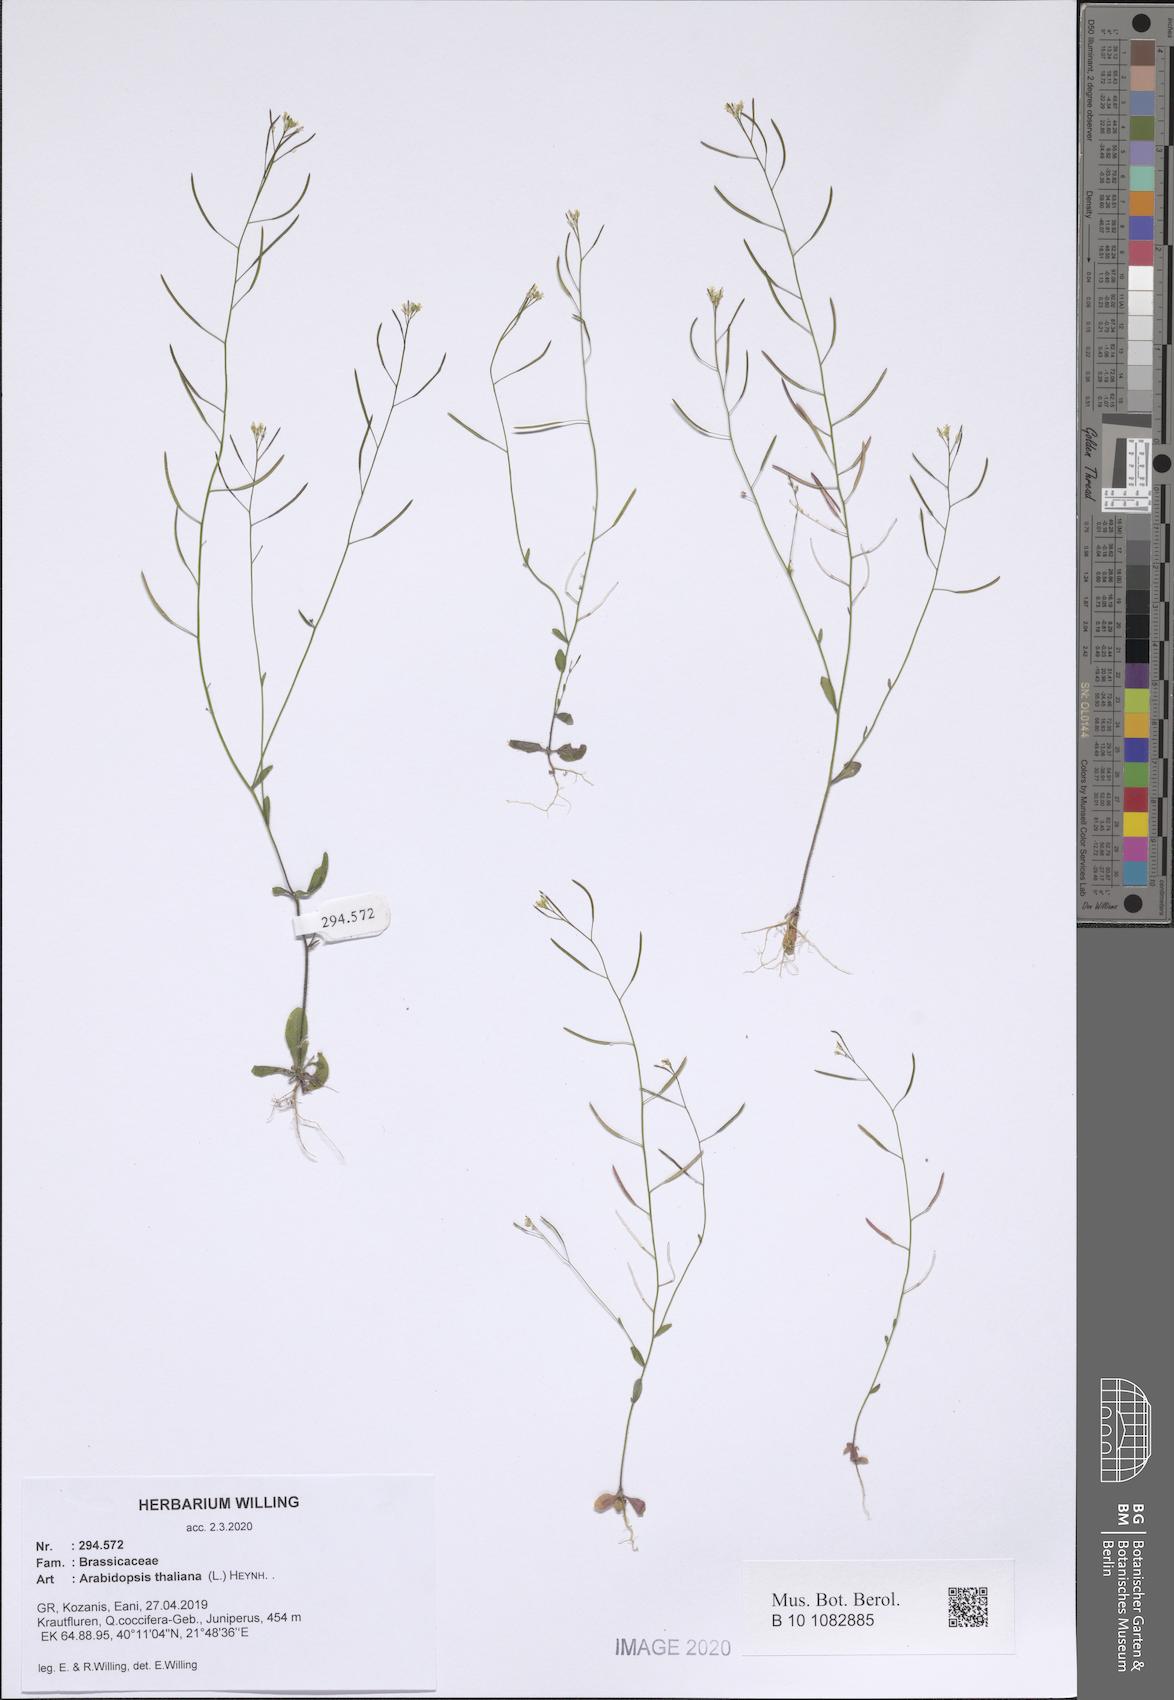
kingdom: Plantae
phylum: Tracheophyta
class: Magnoliopsida
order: Brassicales
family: Brassicaceae
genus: Arabidopsis
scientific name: Arabidopsis thaliana
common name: Thale cress
